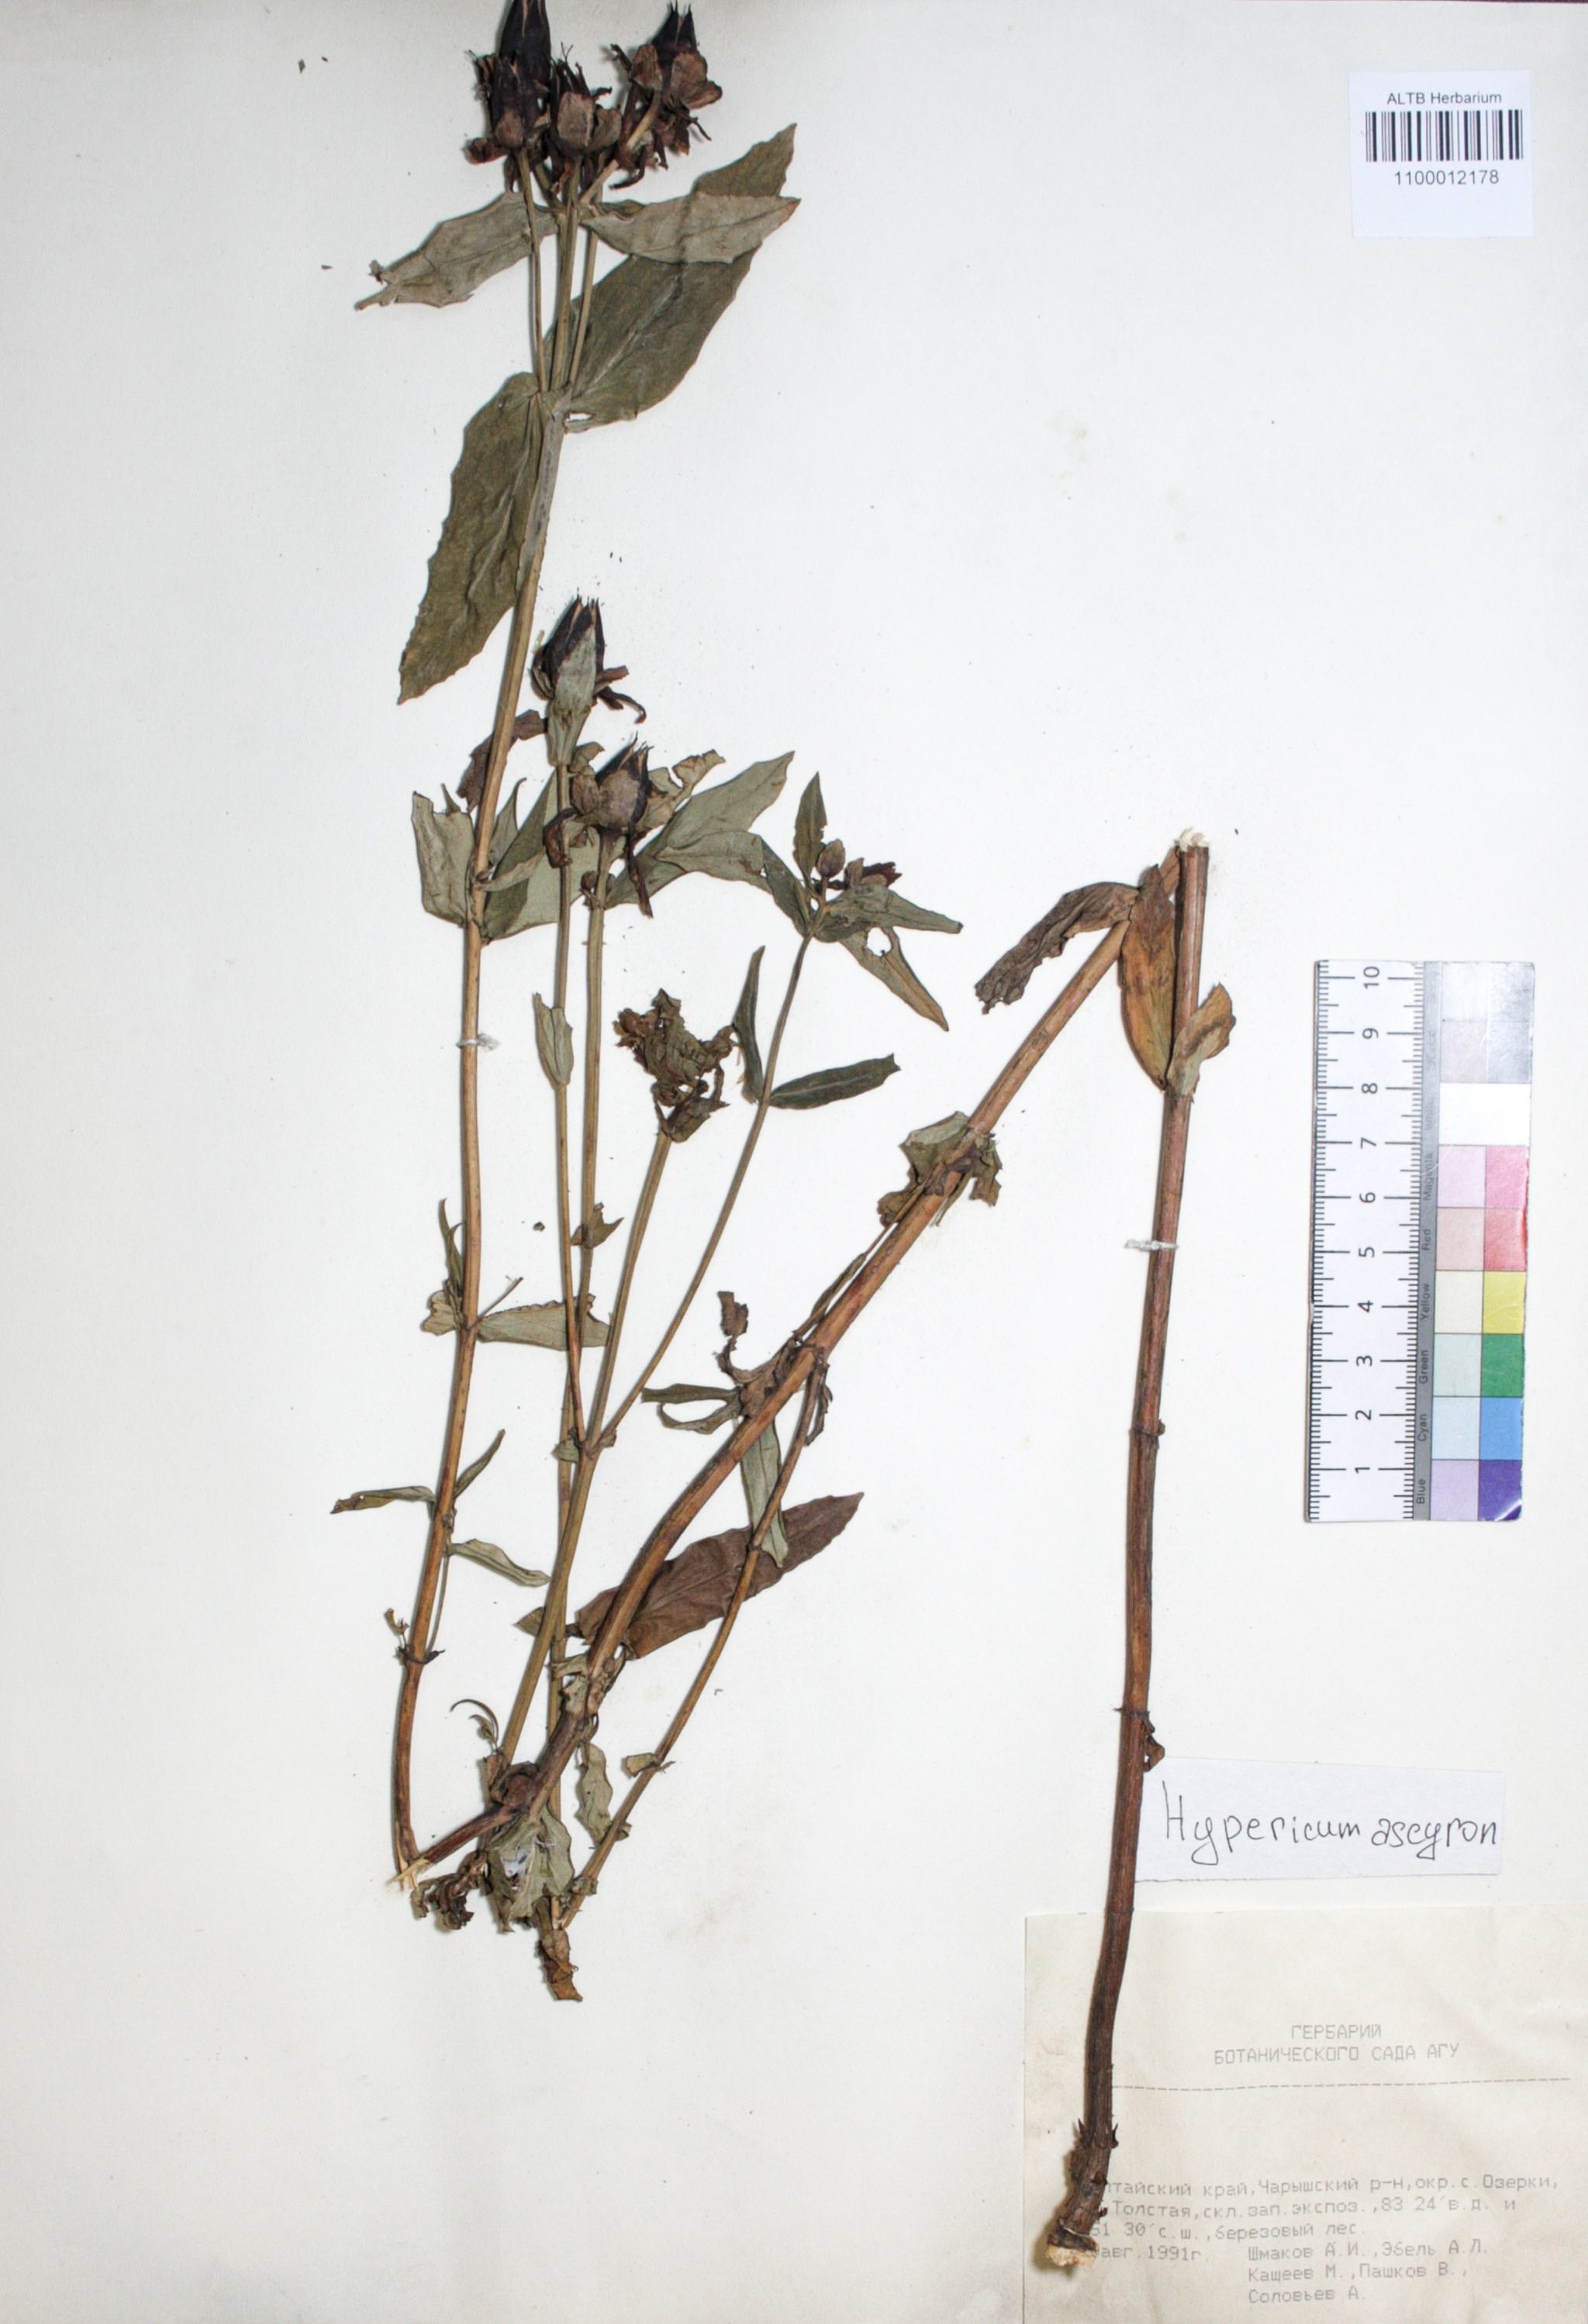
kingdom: Plantae
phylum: Tracheophyta
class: Magnoliopsida
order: Malpighiales
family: Hypericaceae
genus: Hypericum
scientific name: Hypericum ascyron
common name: Giant st. john's-wort
